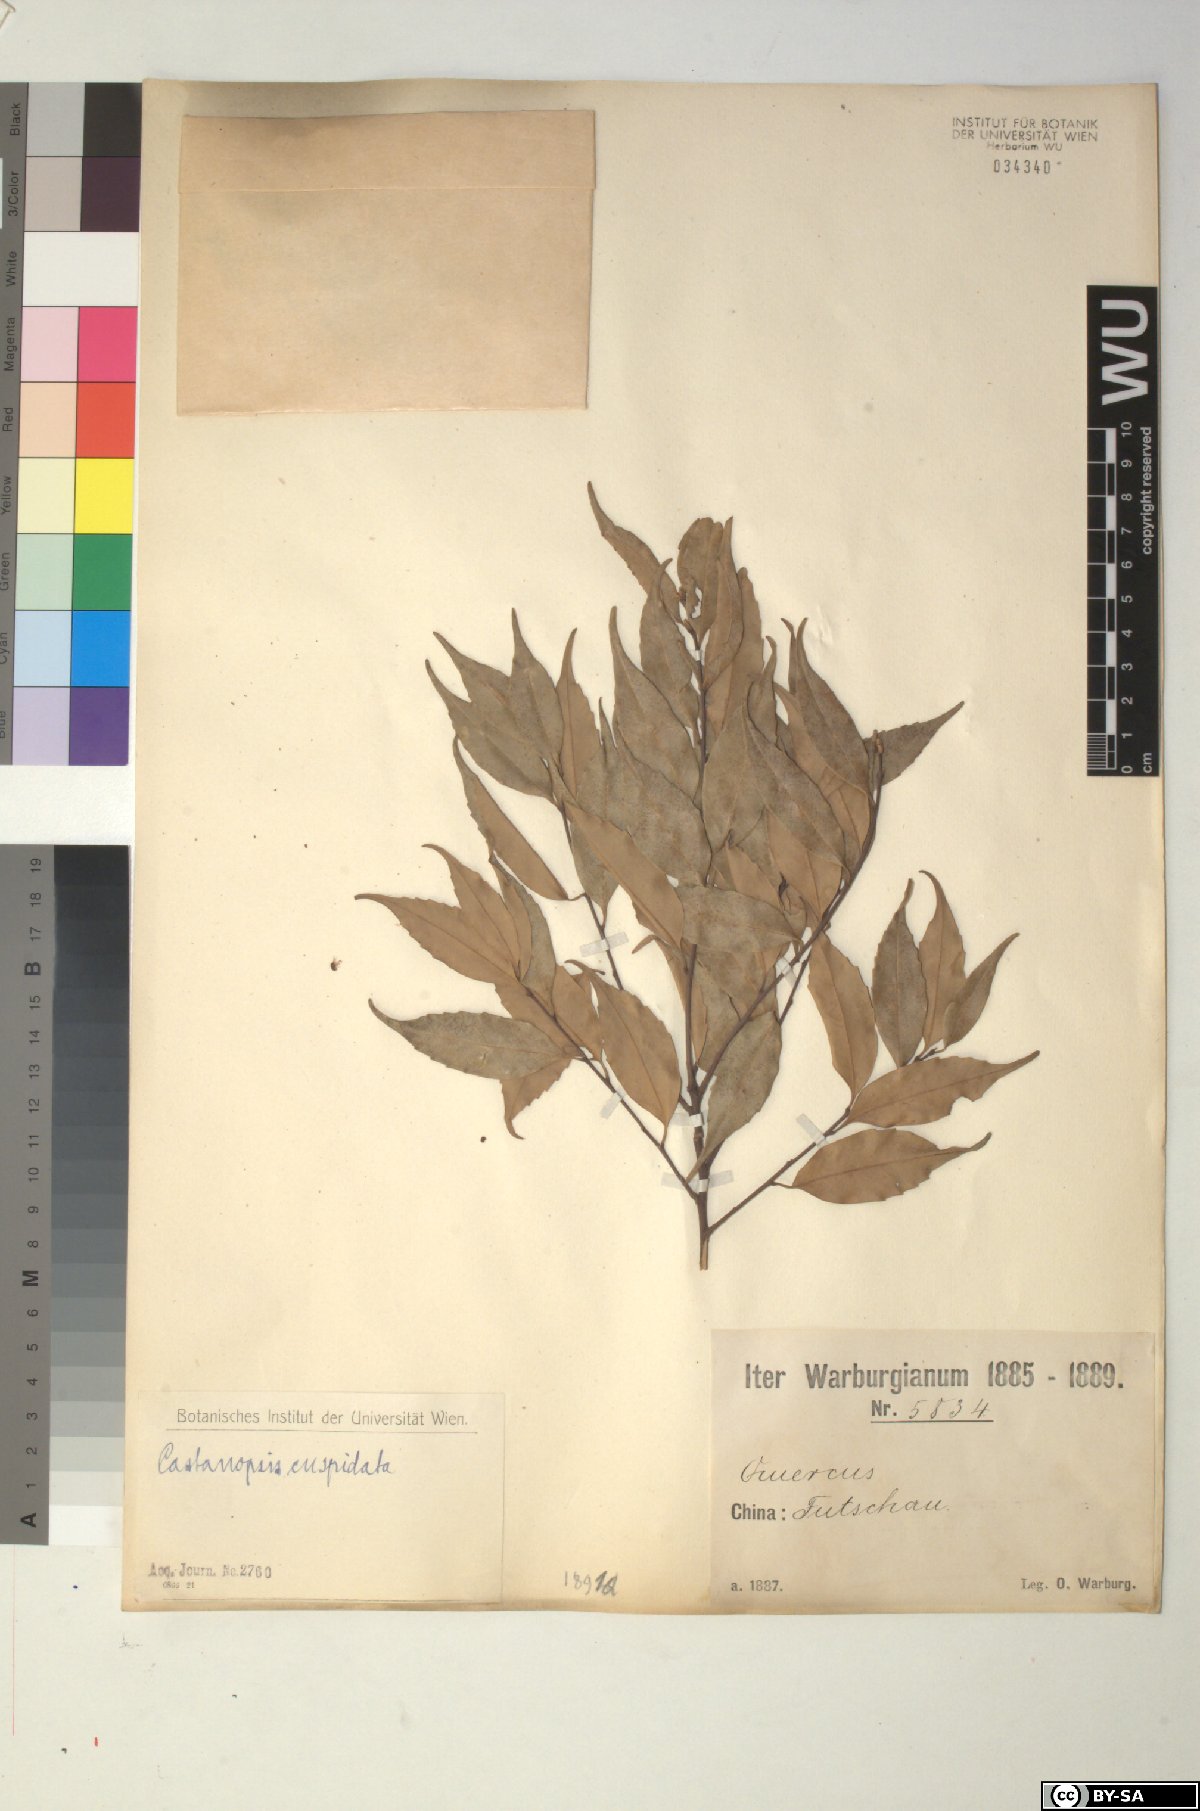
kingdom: Plantae
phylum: Tracheophyta
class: Magnoliopsida
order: Fagales
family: Fagaceae
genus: Castanopsis
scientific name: Castanopsis cuspidata
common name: Japanese chinquapin
